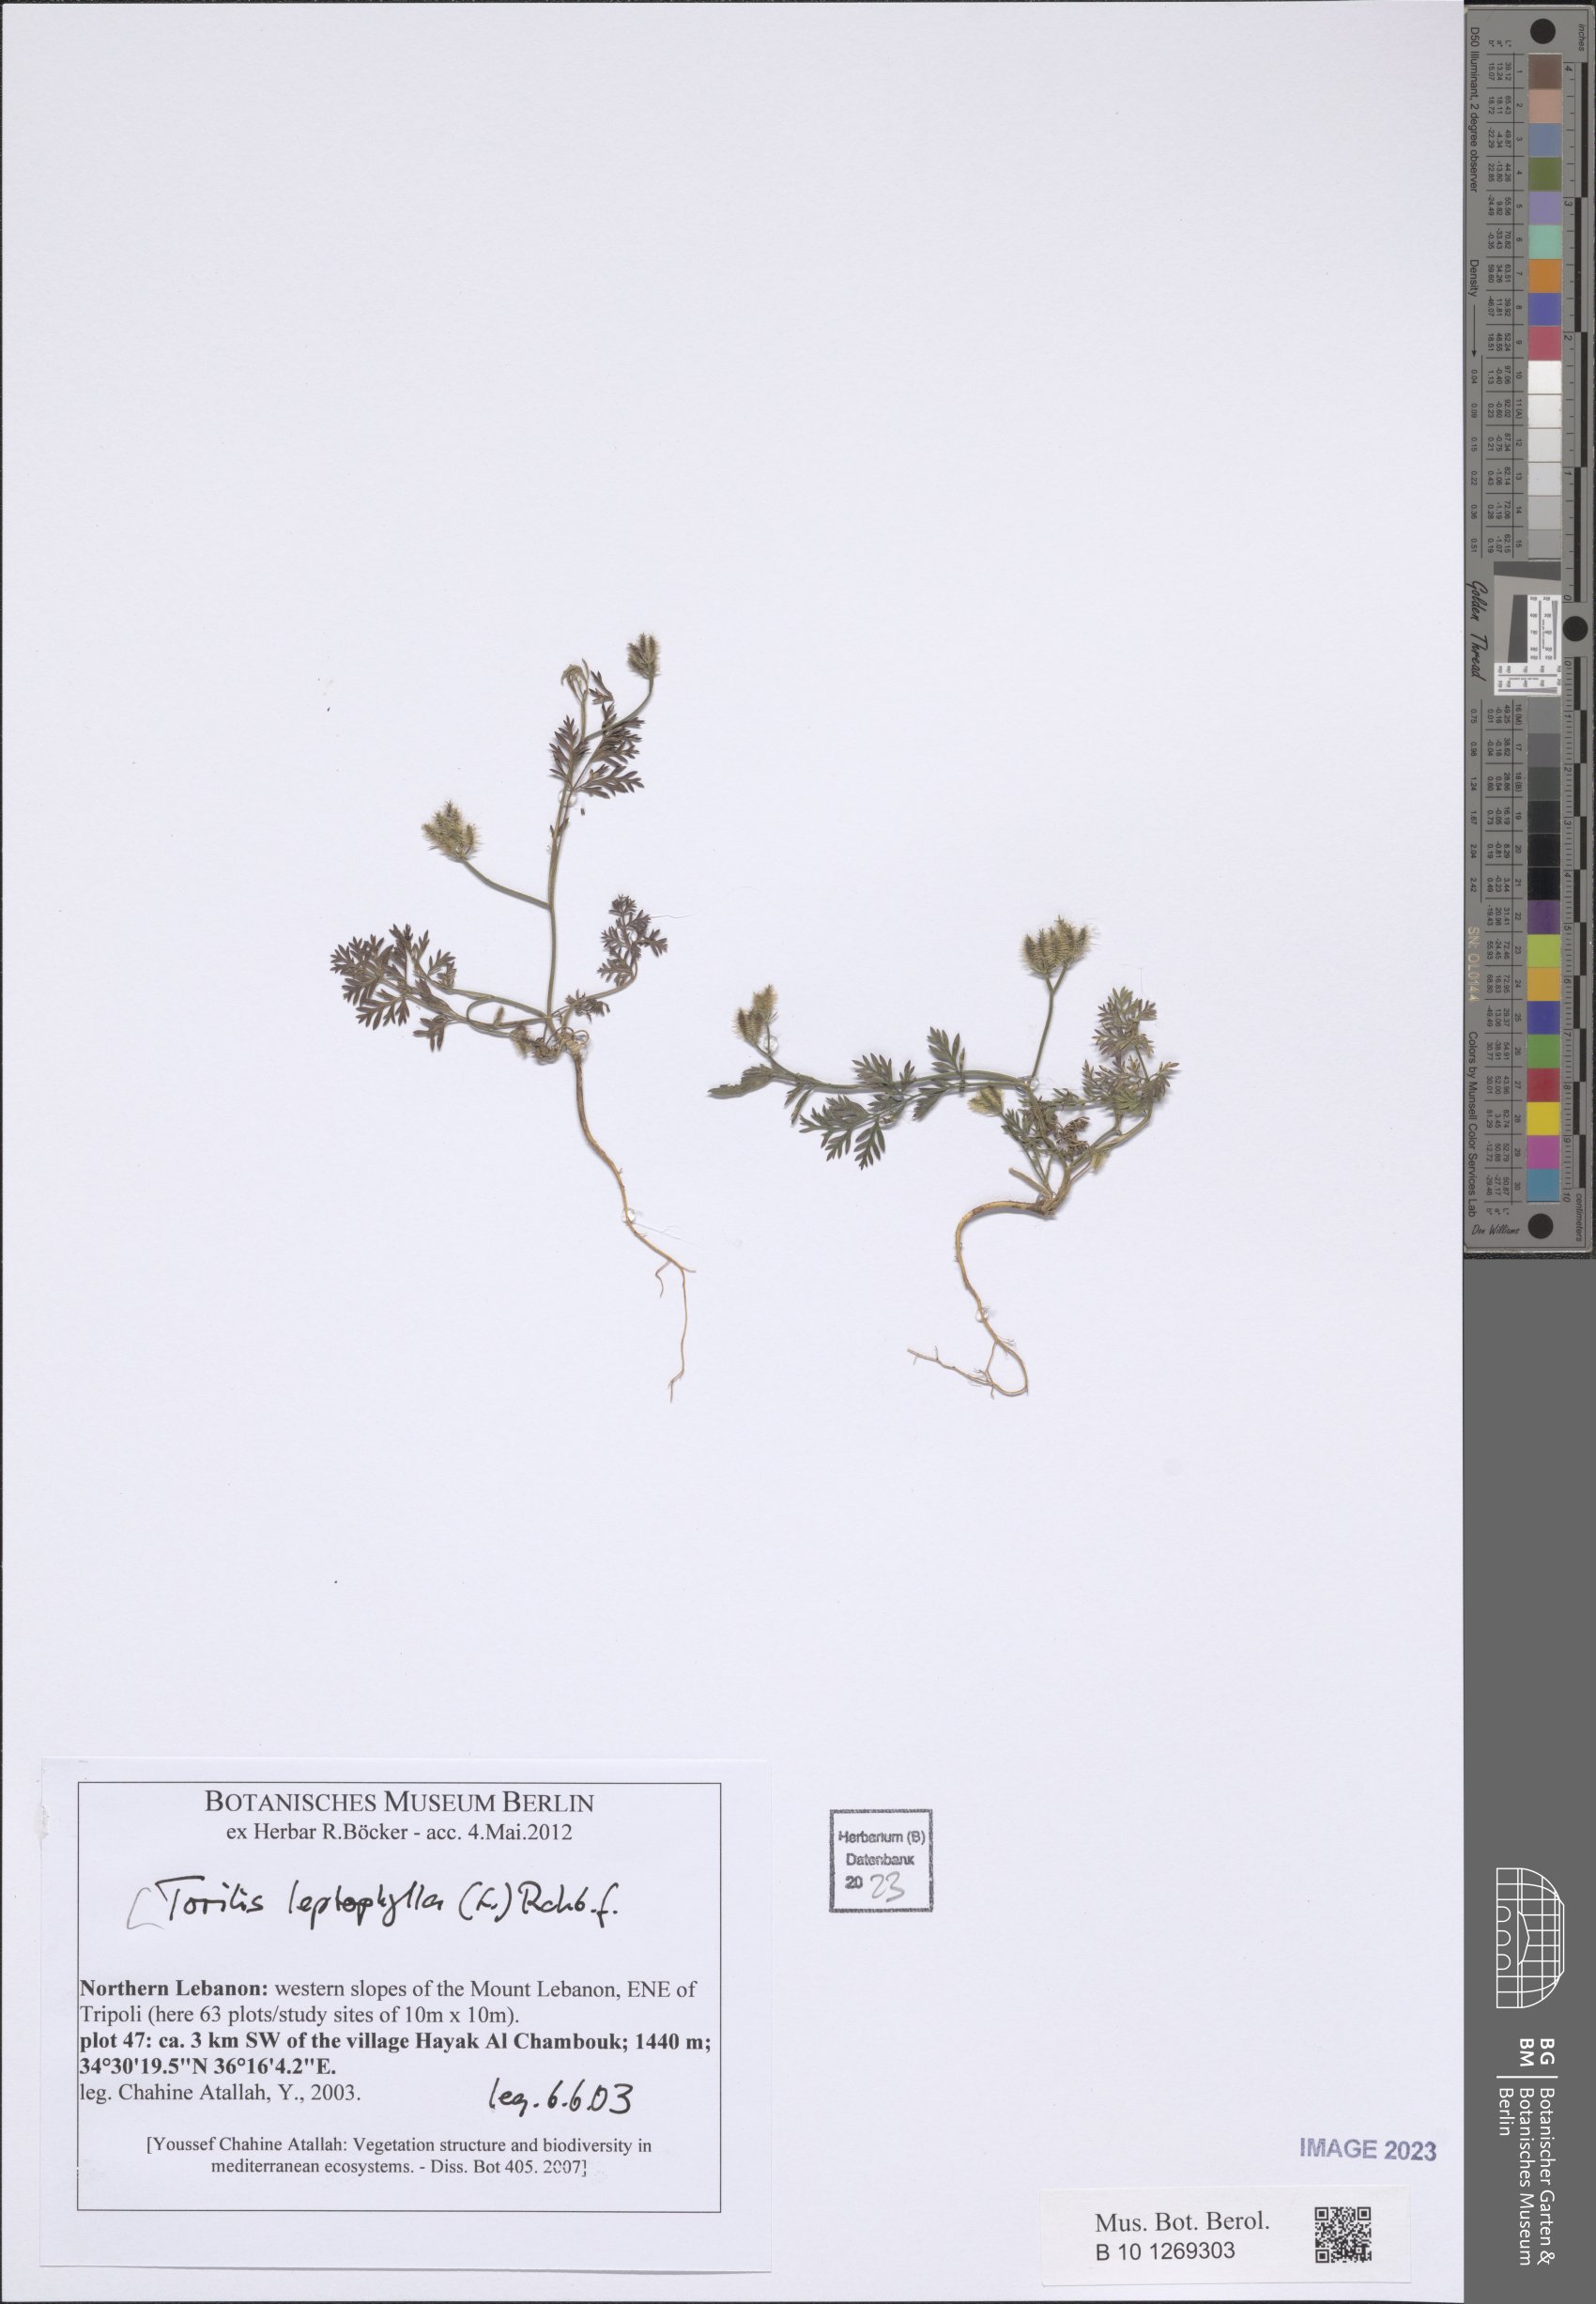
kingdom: Plantae
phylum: Tracheophyta
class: Magnoliopsida
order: Apiales
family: Apiaceae
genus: Torilis
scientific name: Torilis leptophylla
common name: Bristlefruit hedgeparsley
